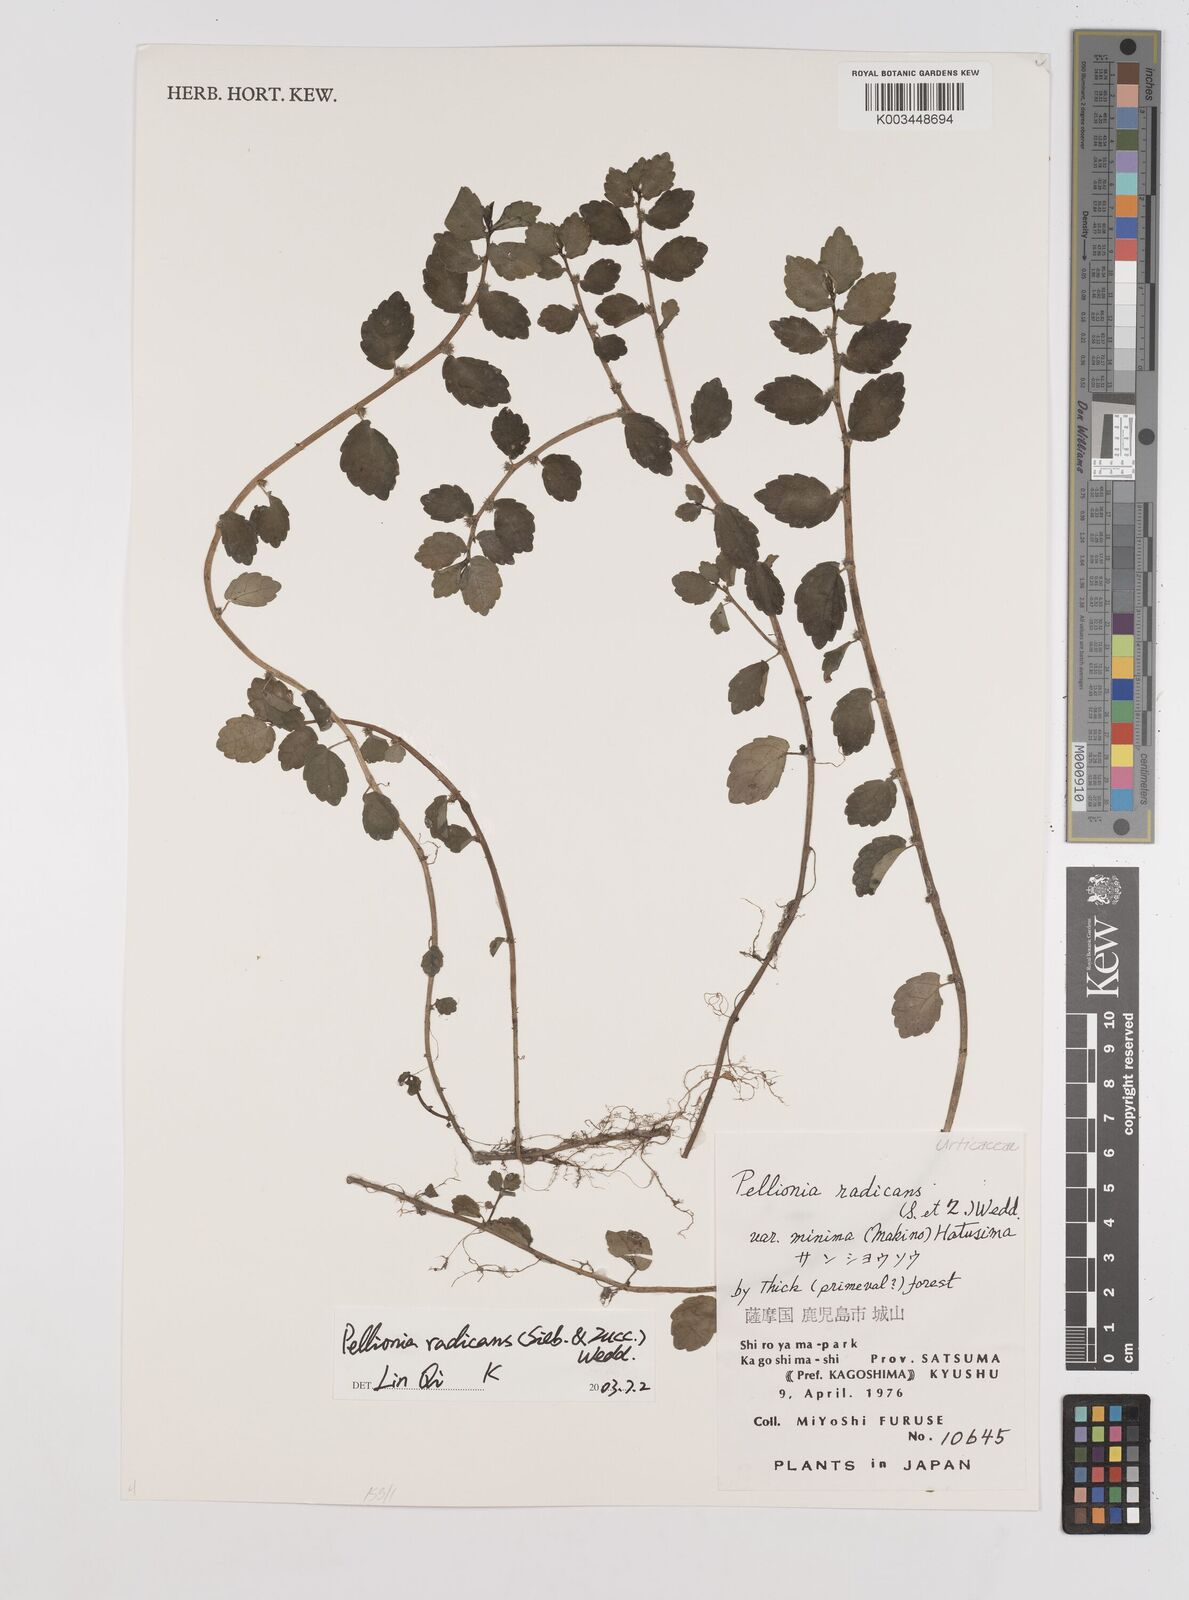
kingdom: Plantae
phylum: Tracheophyta
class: Magnoliopsida
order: Rosales
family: Urticaceae
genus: Elatostema
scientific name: Elatostema radicans
